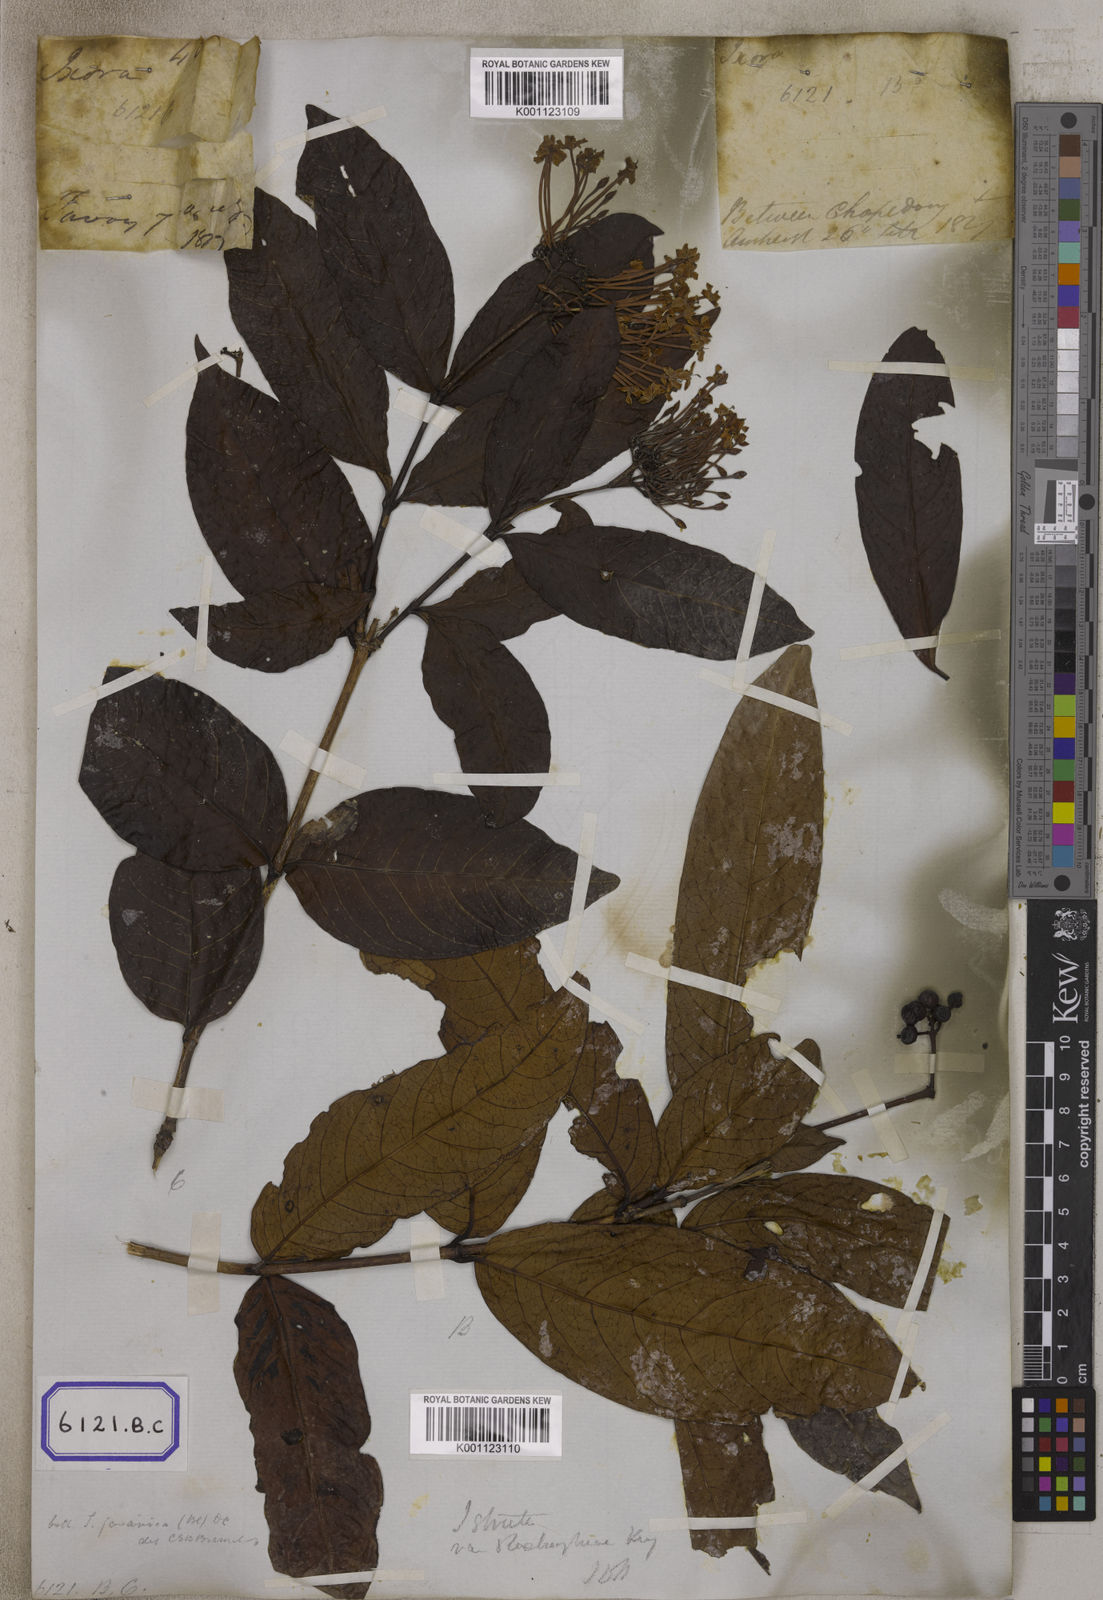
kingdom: Plantae
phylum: Tracheophyta
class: Magnoliopsida
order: Gentianales
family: Rubiaceae
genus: Ixora
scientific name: Ixora
